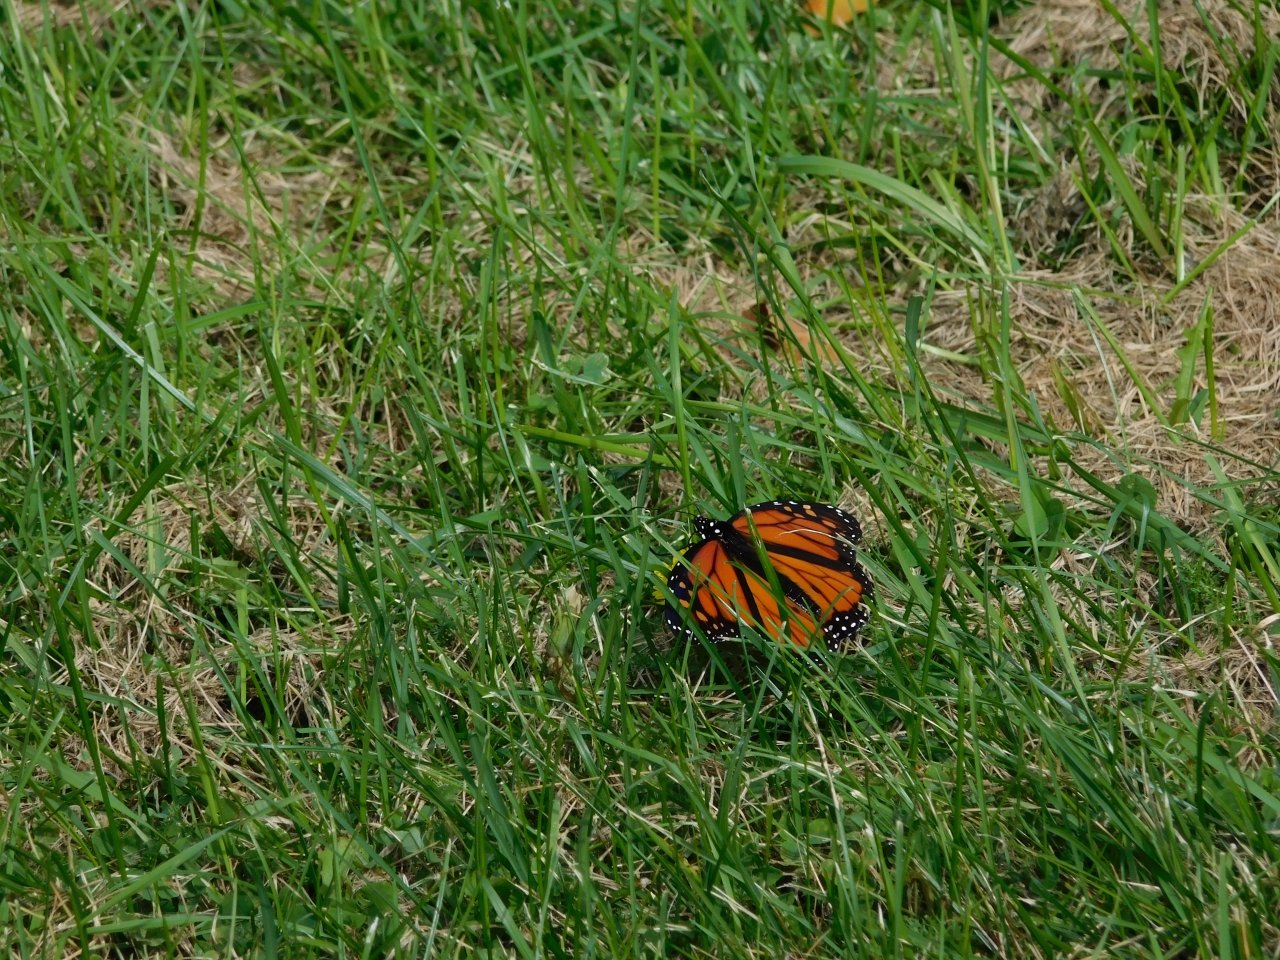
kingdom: Animalia
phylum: Arthropoda
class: Insecta
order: Lepidoptera
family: Nymphalidae
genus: Danaus
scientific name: Danaus plexippus
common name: Monarch
